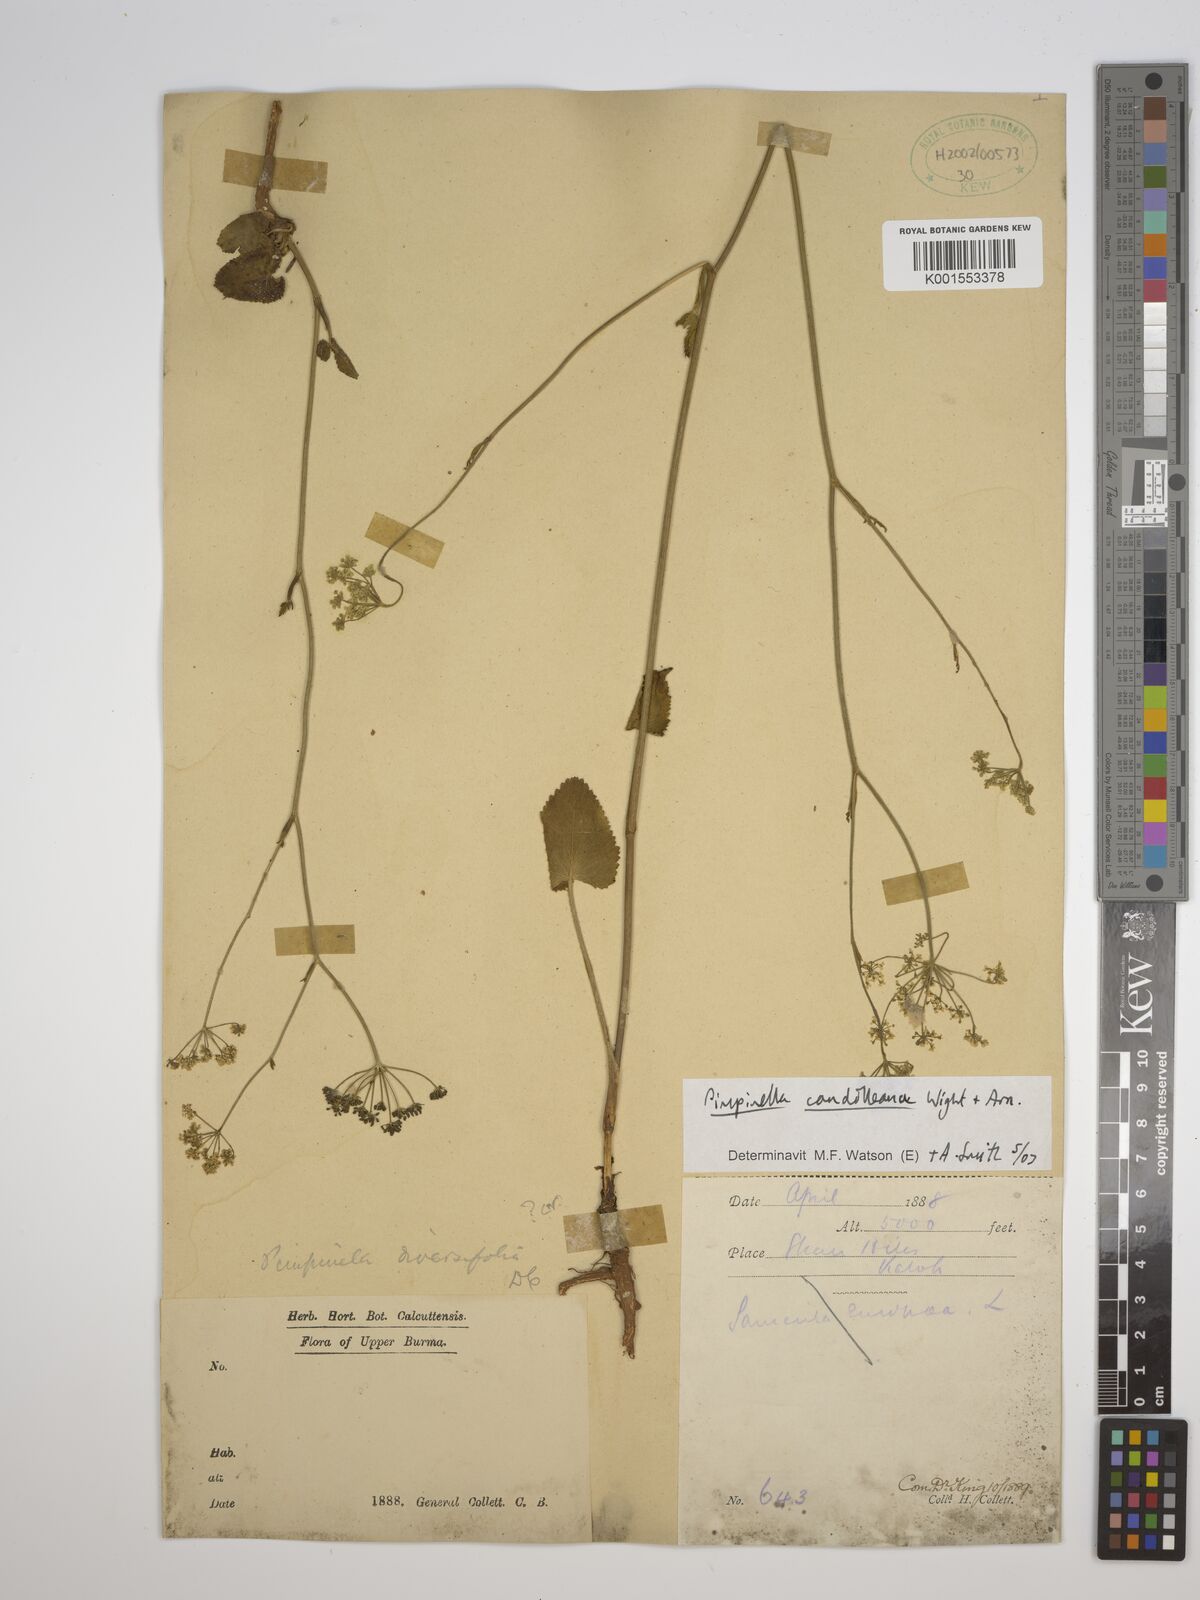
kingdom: Plantae
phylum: Tracheophyta
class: Magnoliopsida
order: Apiales
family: Apiaceae
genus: Pimpinella
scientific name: Pimpinella candolleana
